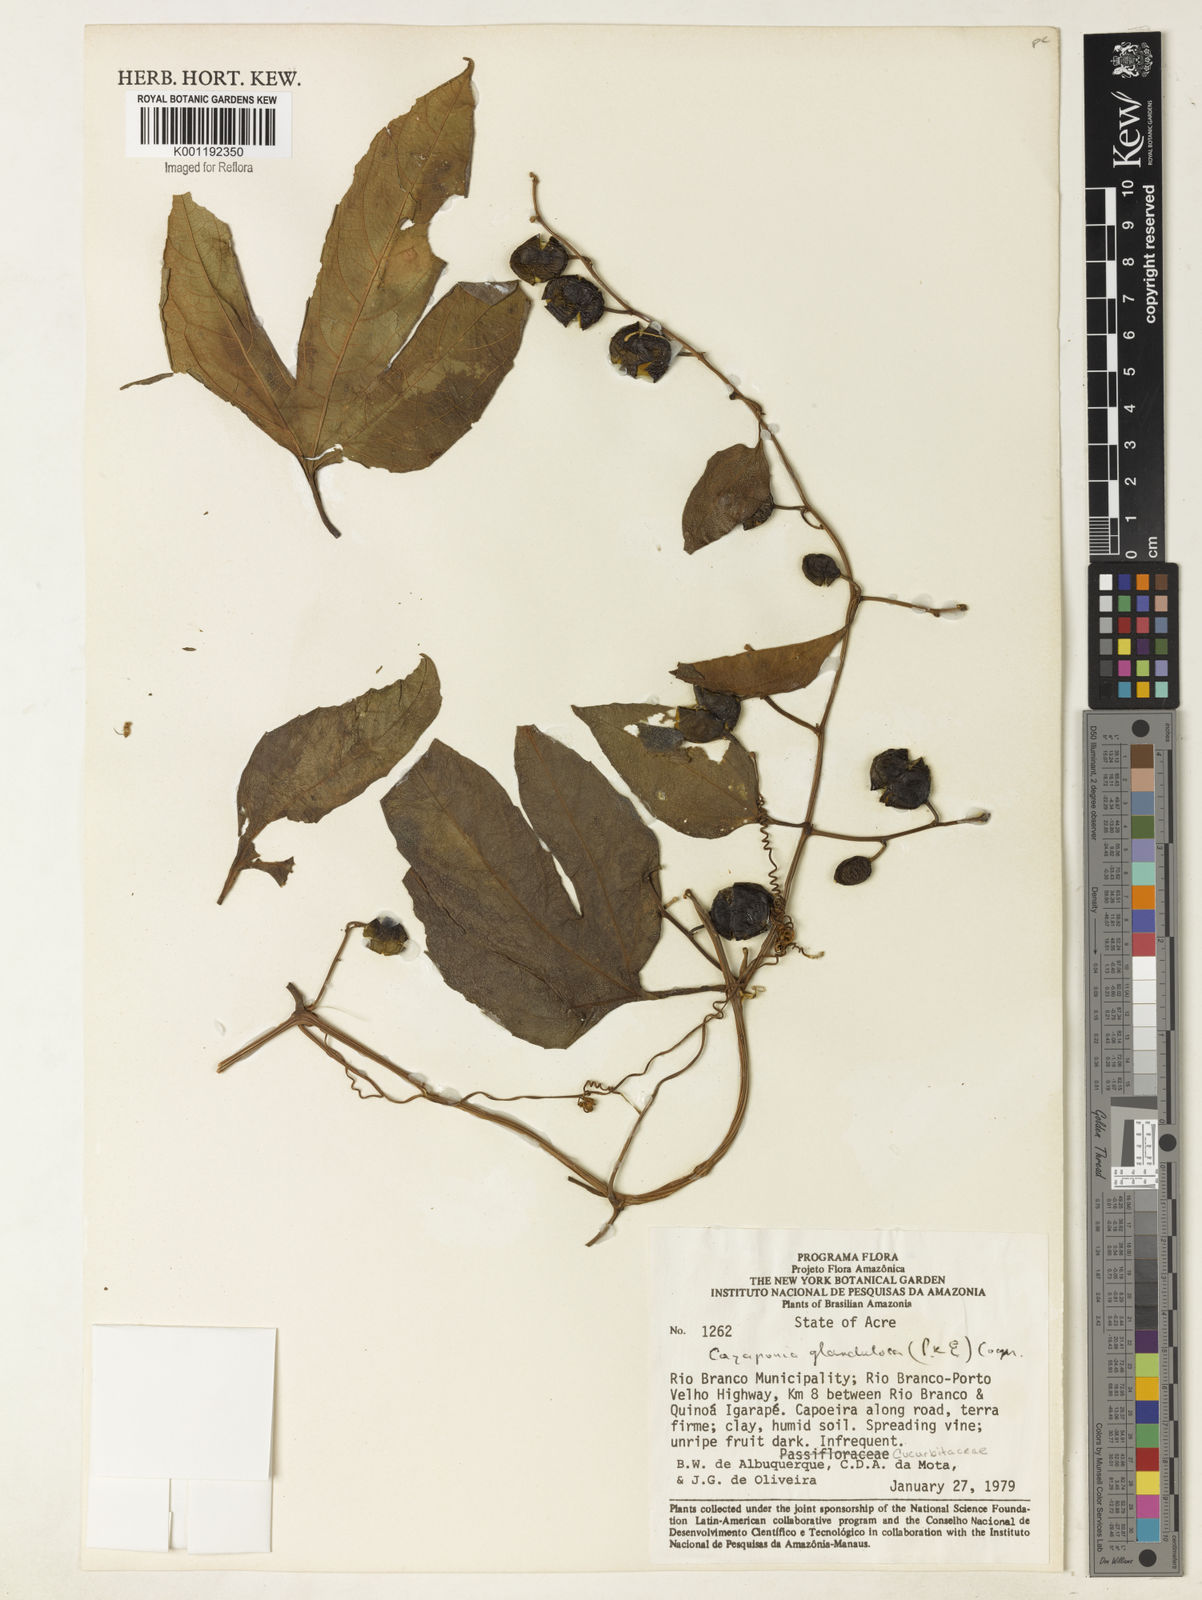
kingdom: Plantae
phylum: Tracheophyta
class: Magnoliopsida
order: Cucurbitales
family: Cucurbitaceae
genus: Cayaponia
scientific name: Cayaponia glandulosa
